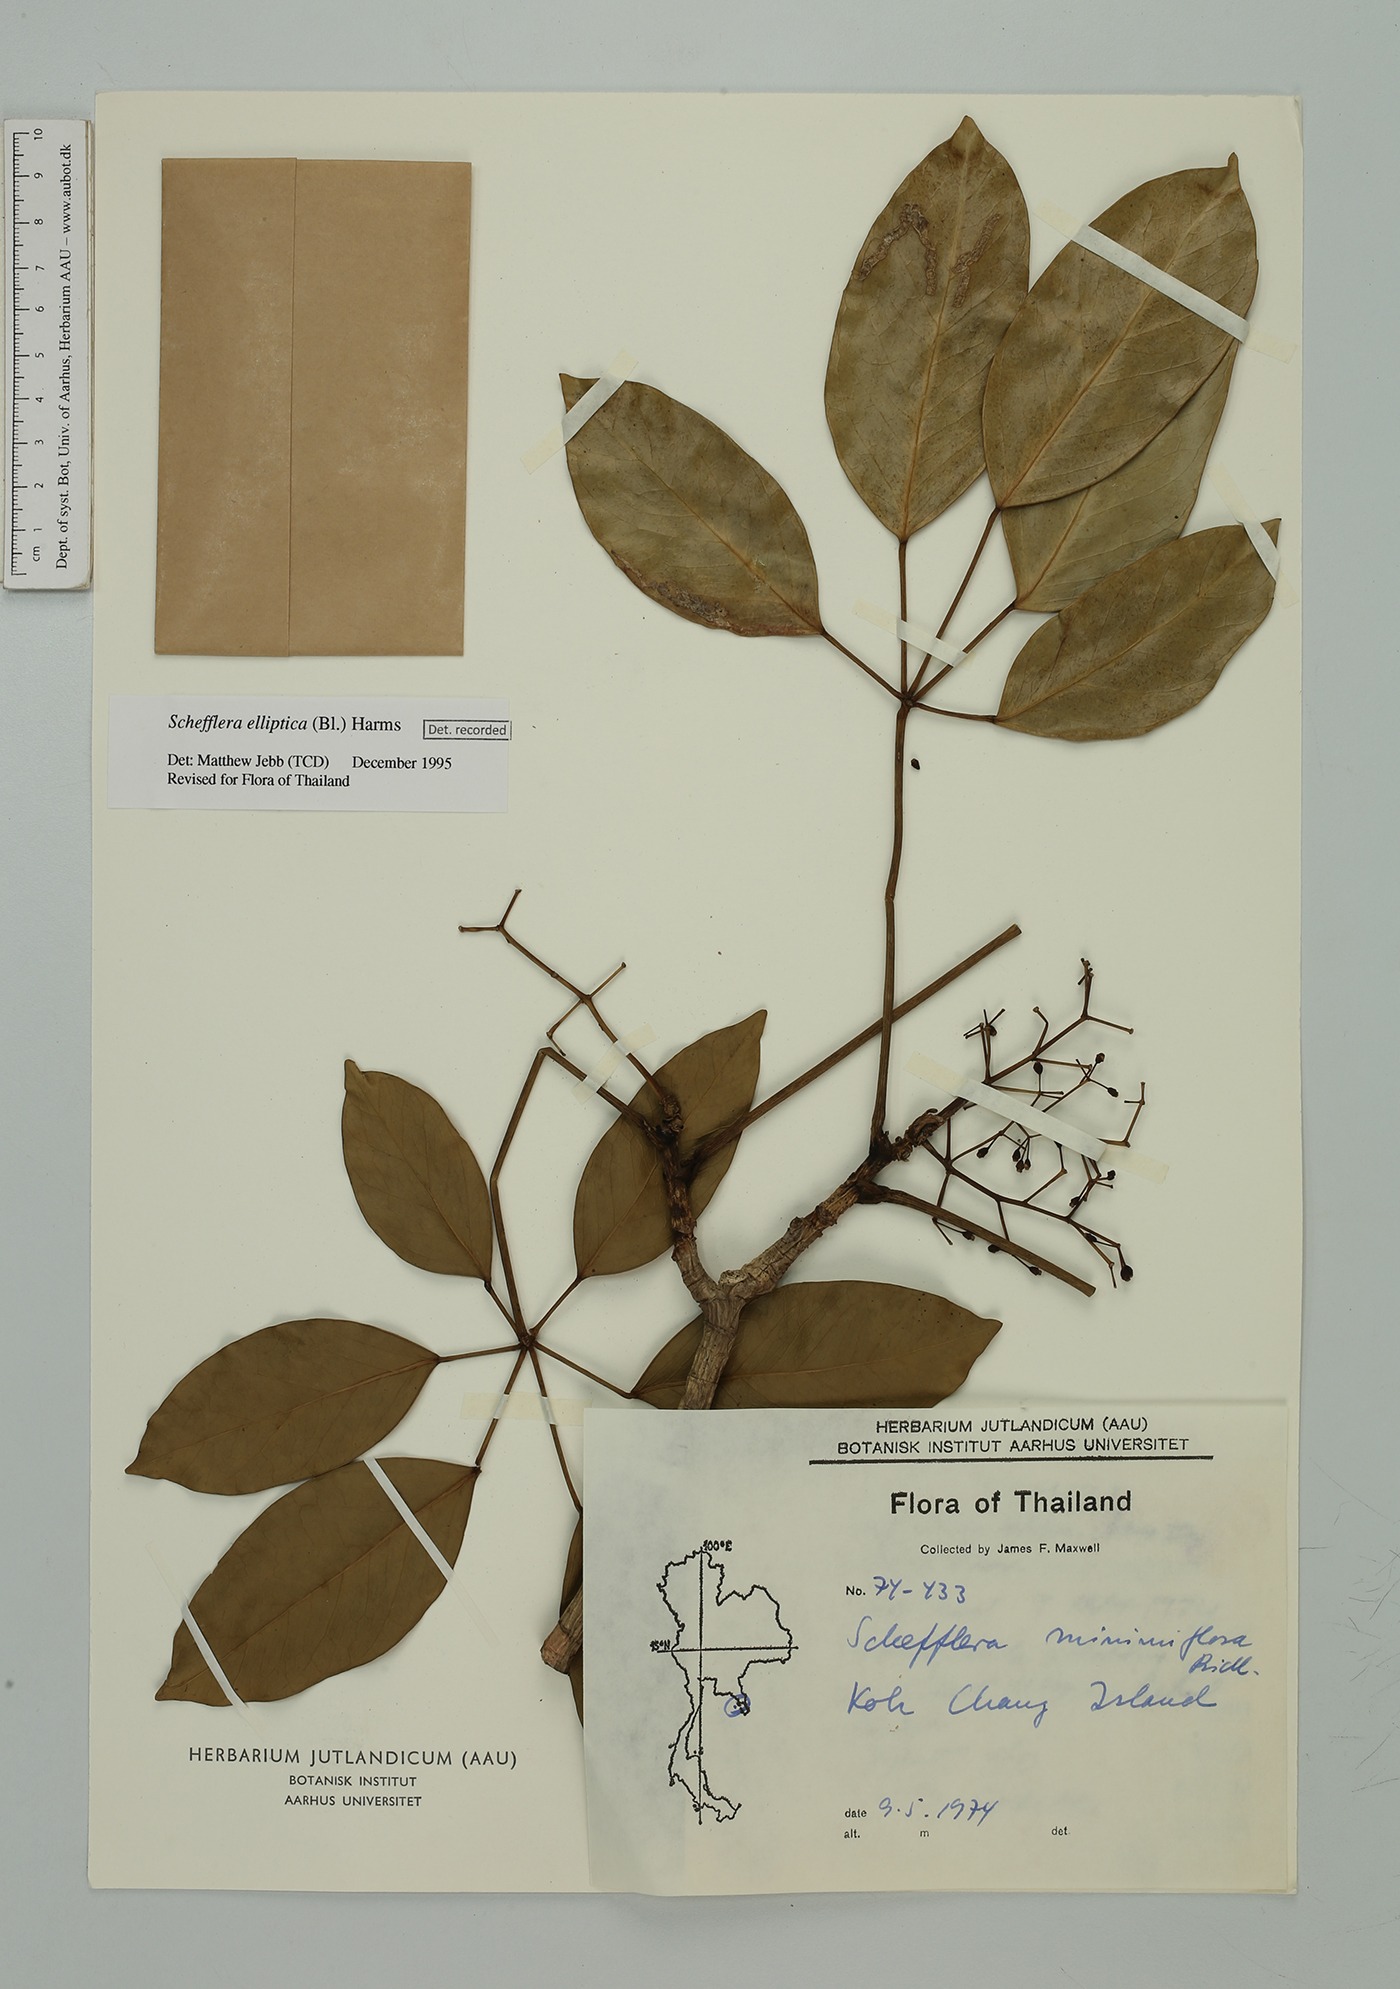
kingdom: Plantae
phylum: Tracheophyta
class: Magnoliopsida
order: Apiales
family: Araliaceae
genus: Heptapleurum
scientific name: Heptapleurum ellipticum
